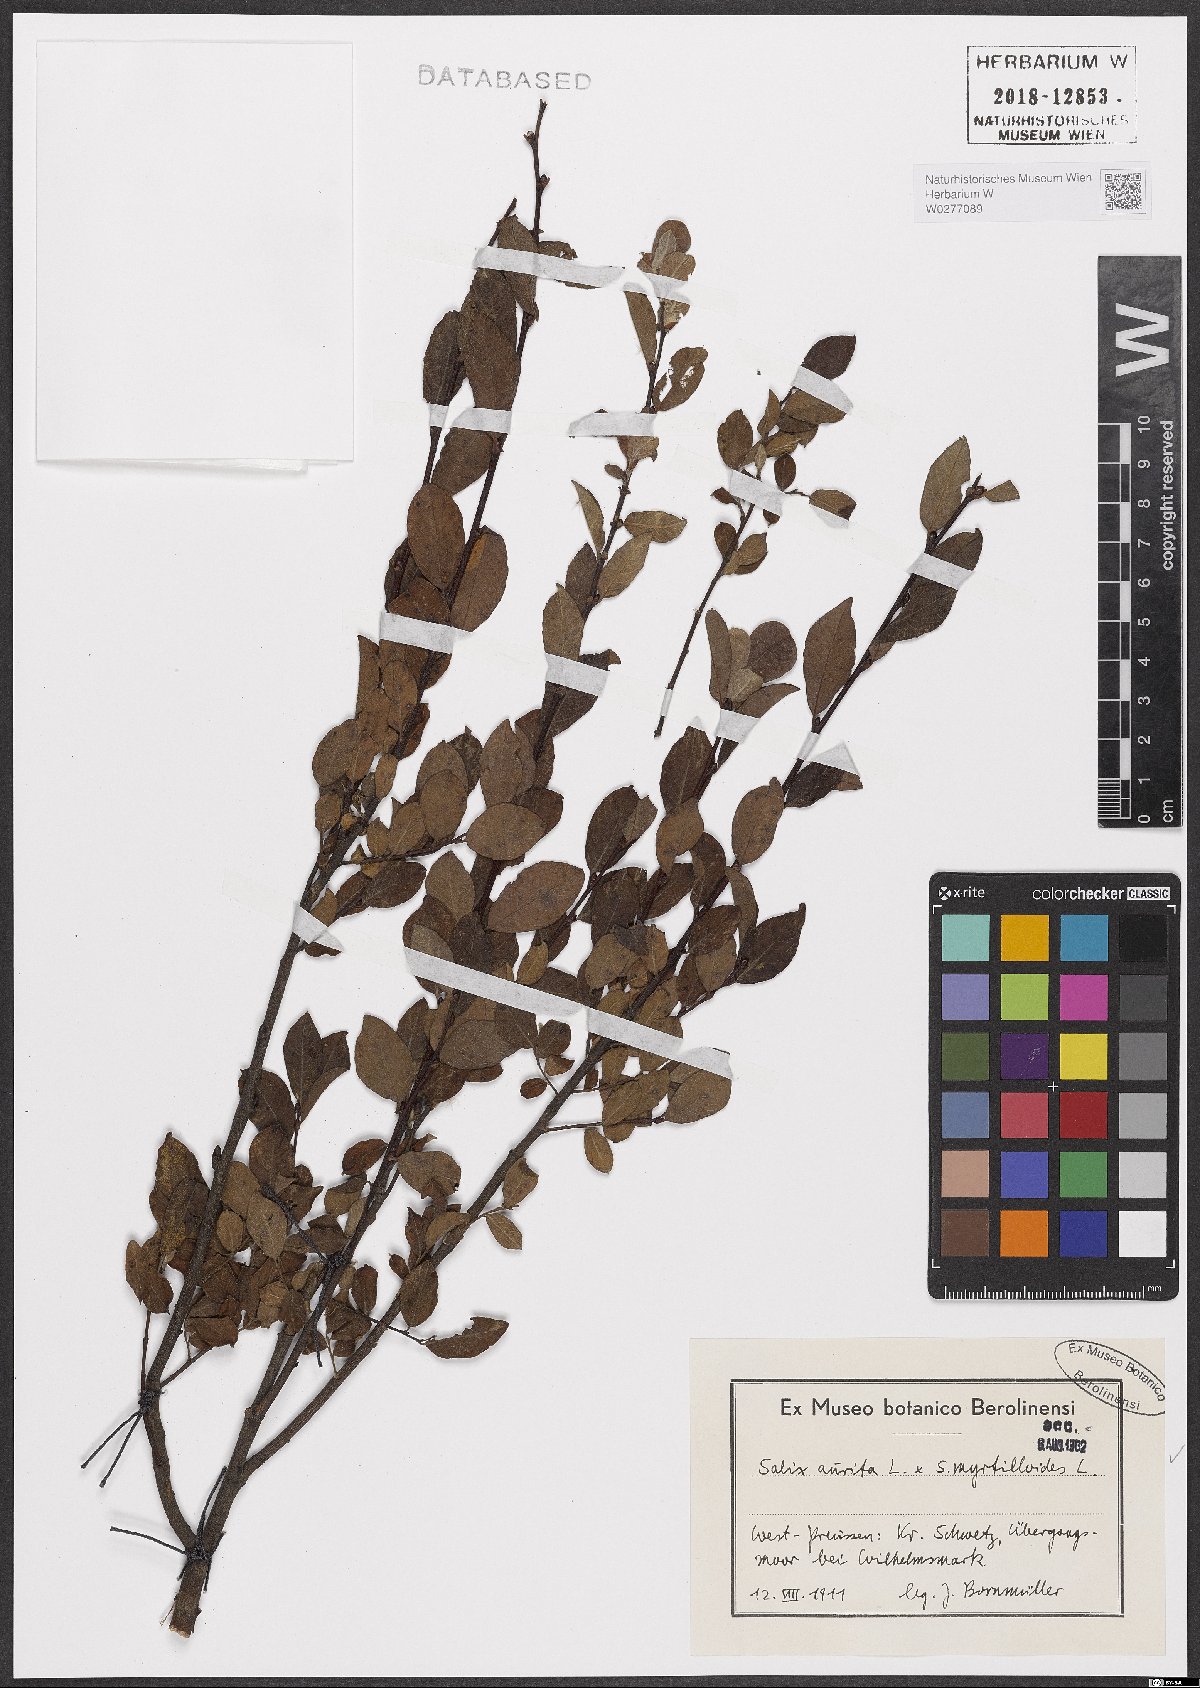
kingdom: Plantae
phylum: Tracheophyta
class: Magnoliopsida
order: Malpighiales
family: Salicaceae
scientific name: Salicaceae
